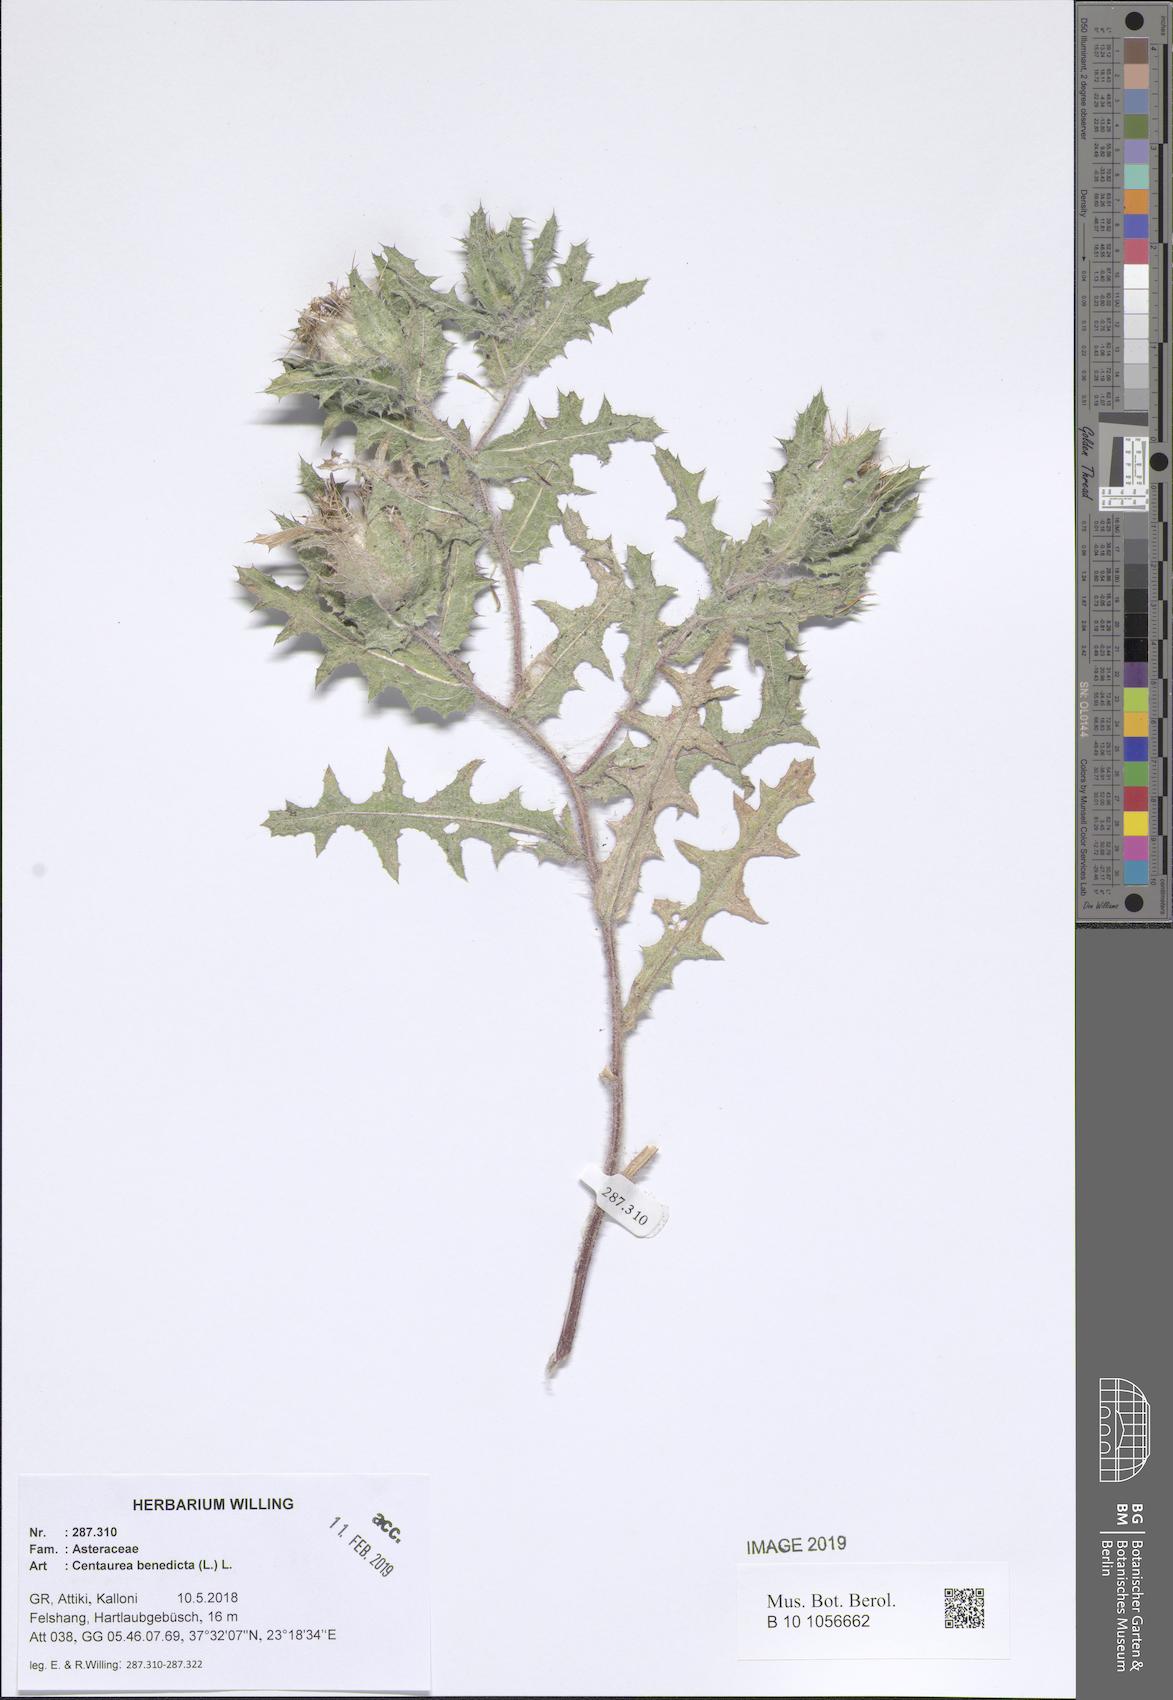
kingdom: Plantae
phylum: Tracheophyta
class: Magnoliopsida
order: Asterales
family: Asteraceae
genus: Centaurea
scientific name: Centaurea benedicta
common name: Blessed thistle
